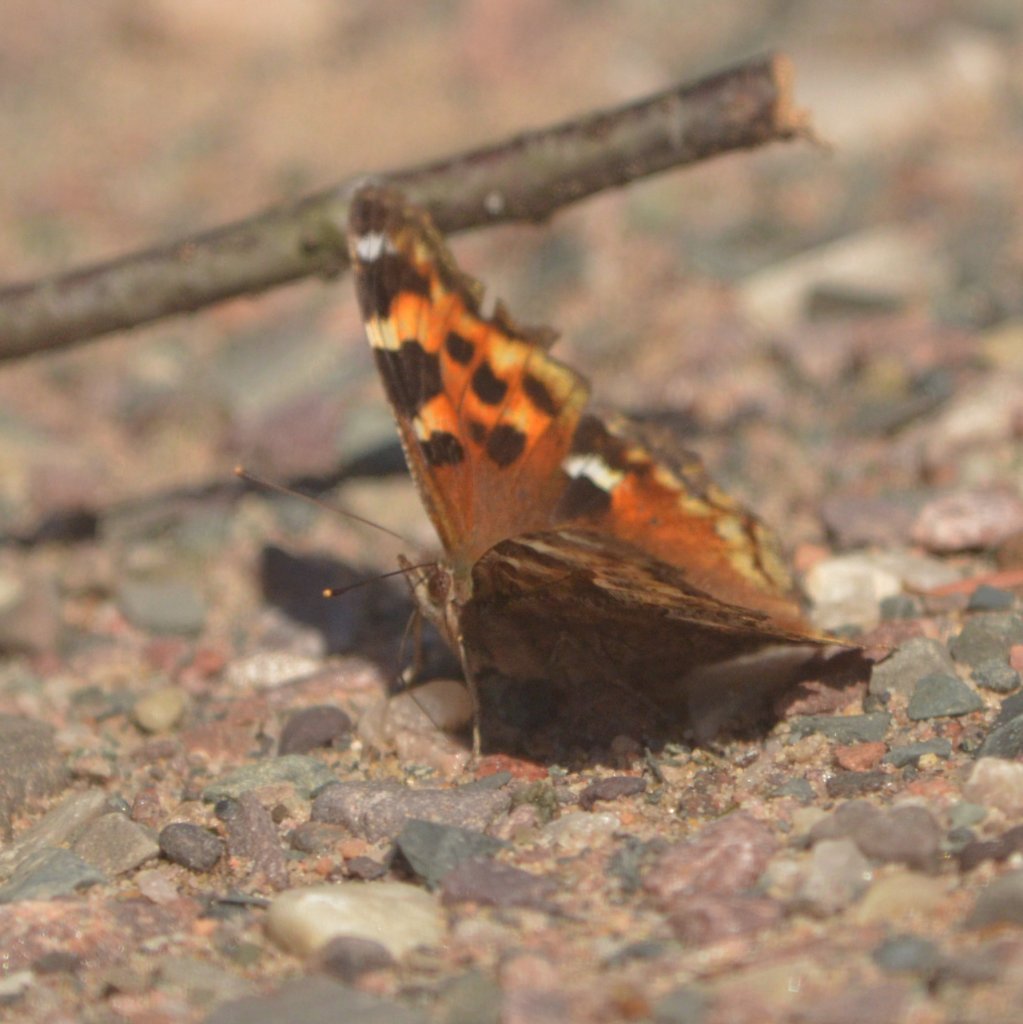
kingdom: Animalia
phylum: Arthropoda
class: Insecta
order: Lepidoptera
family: Nymphalidae
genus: Polygonia
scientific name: Polygonia vaualbum
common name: Compton Tortoiseshell
